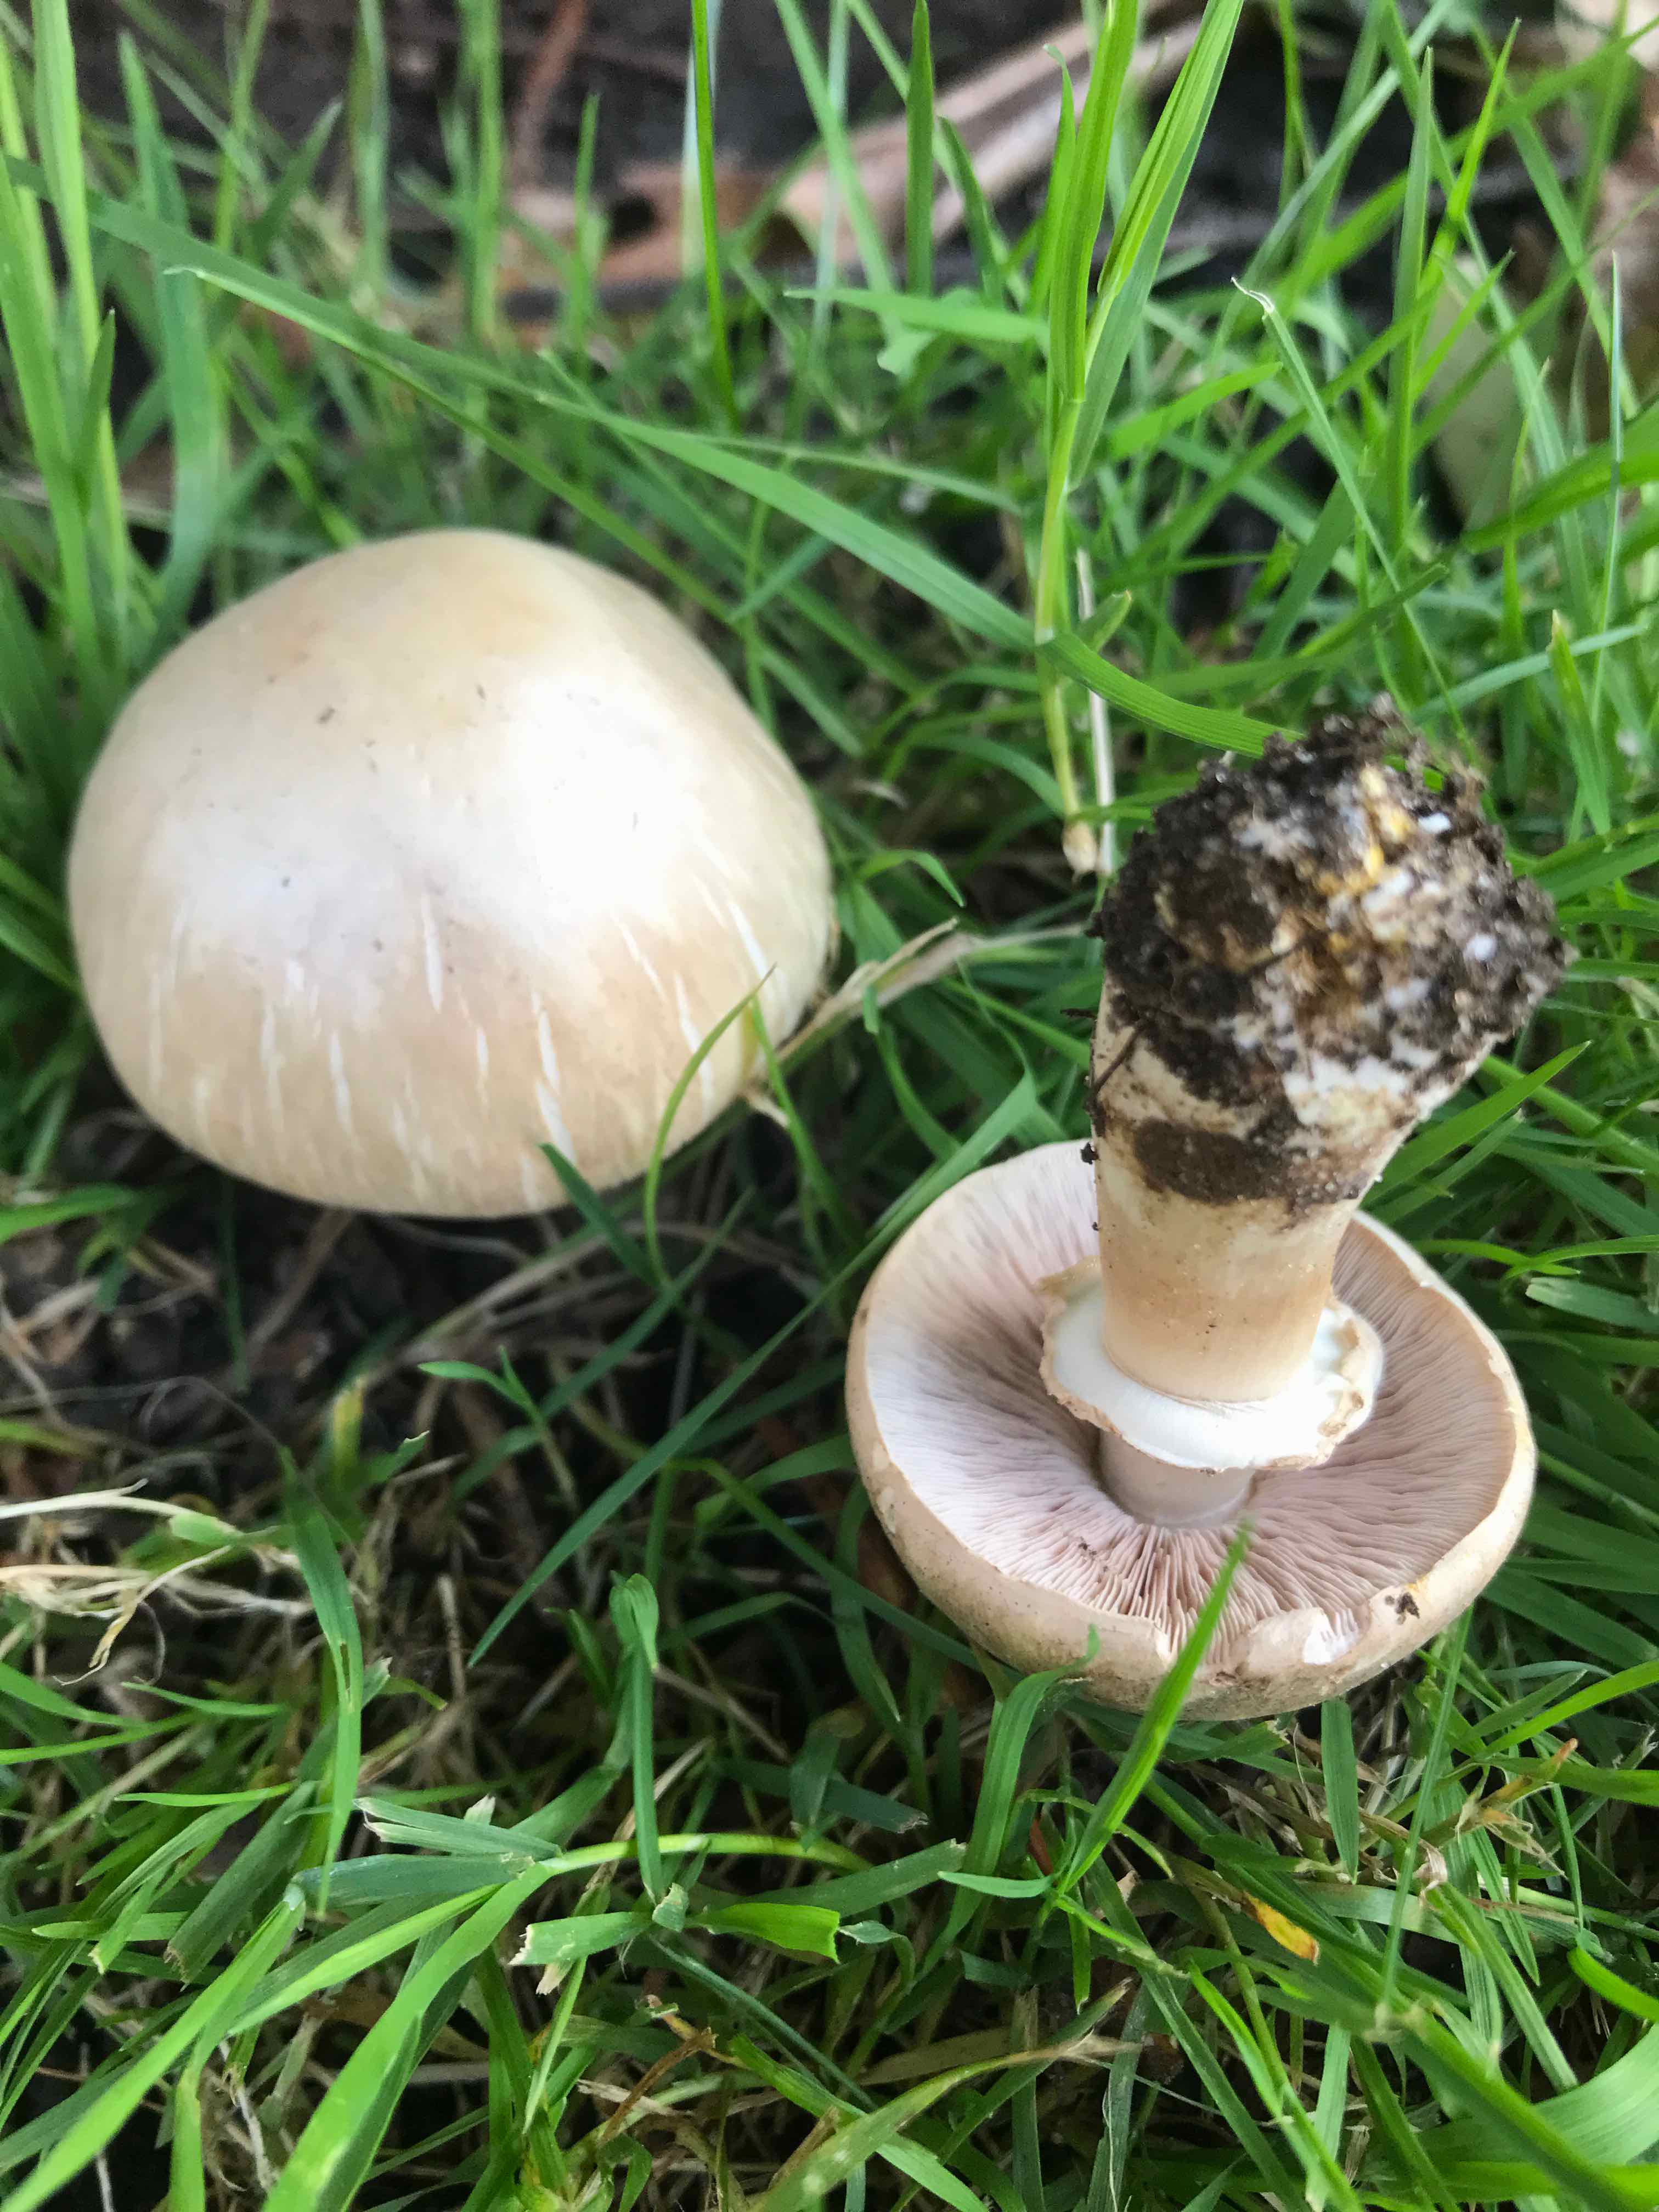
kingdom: Fungi
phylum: Basidiomycota
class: Agaricomycetes
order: Agaricales
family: Agaricaceae
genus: Agaricus
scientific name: Agaricus
